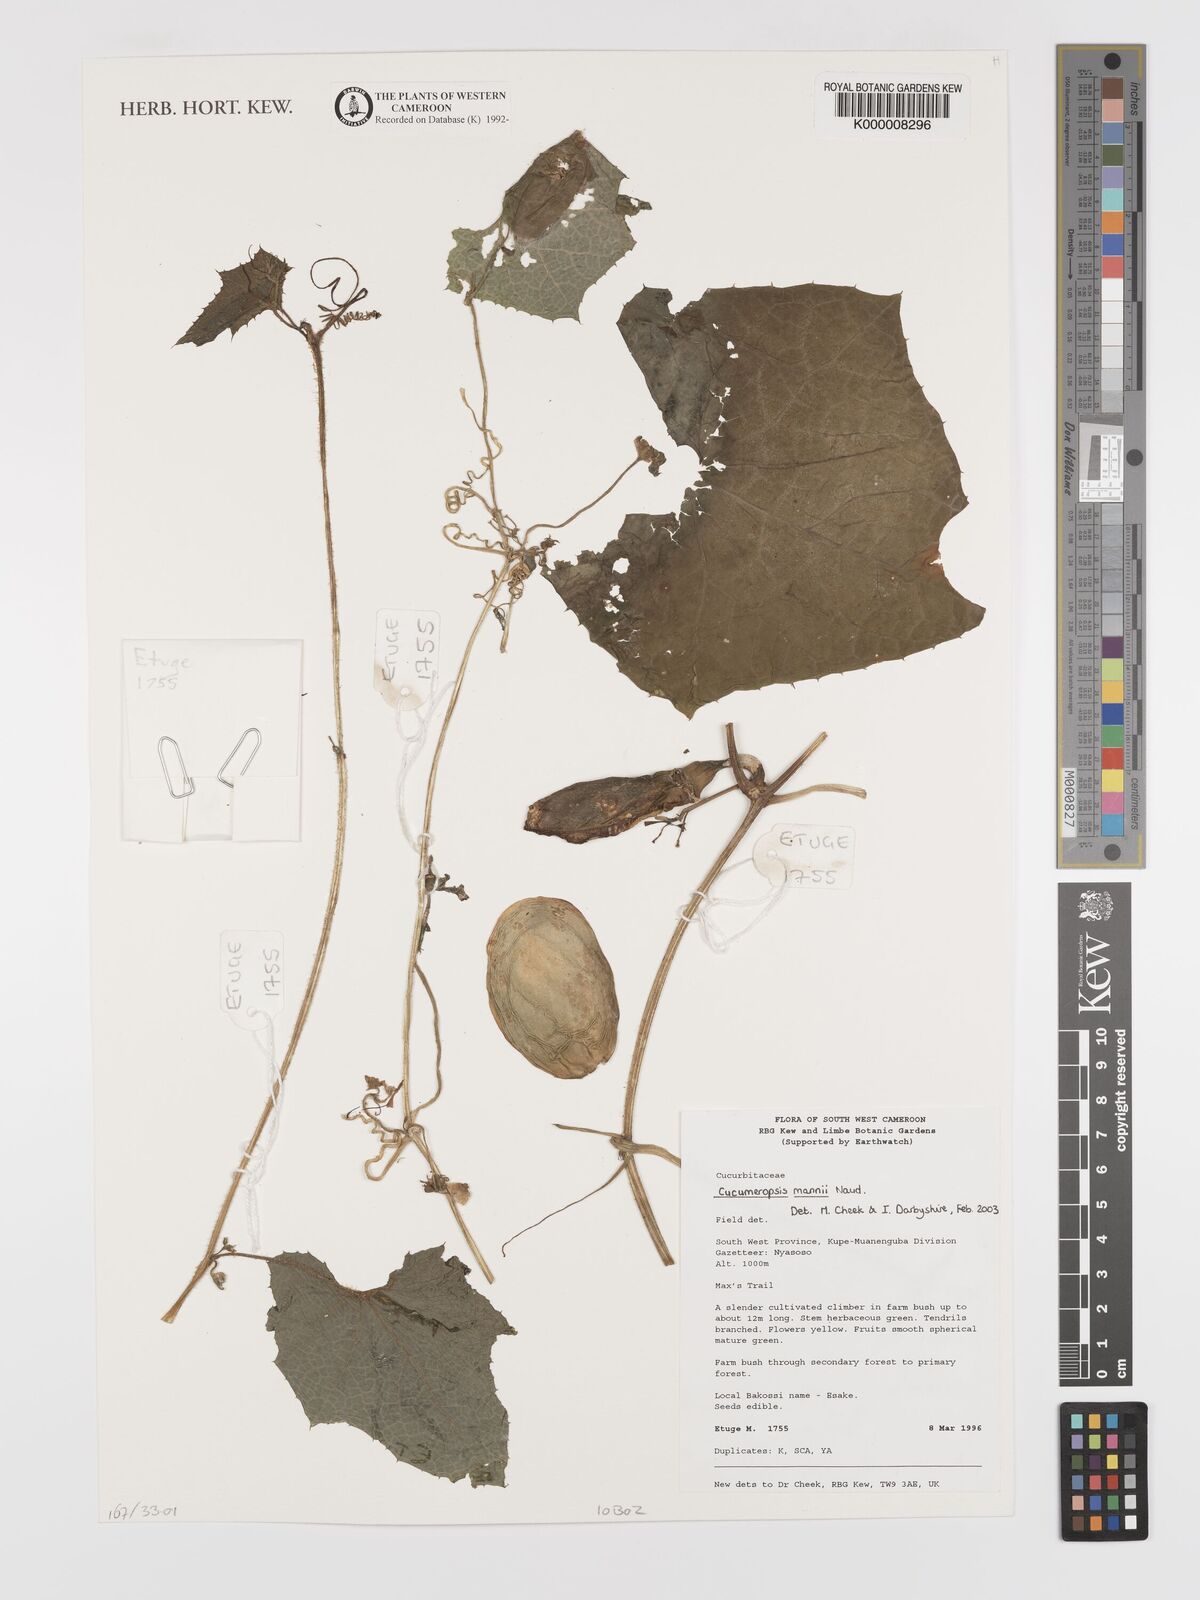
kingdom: Plantae
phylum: Tracheophyta
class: Magnoliopsida
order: Cucurbitales
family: Cucurbitaceae
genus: Melothria
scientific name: Melothria sphaerocarpa
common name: Egusi-itoo
